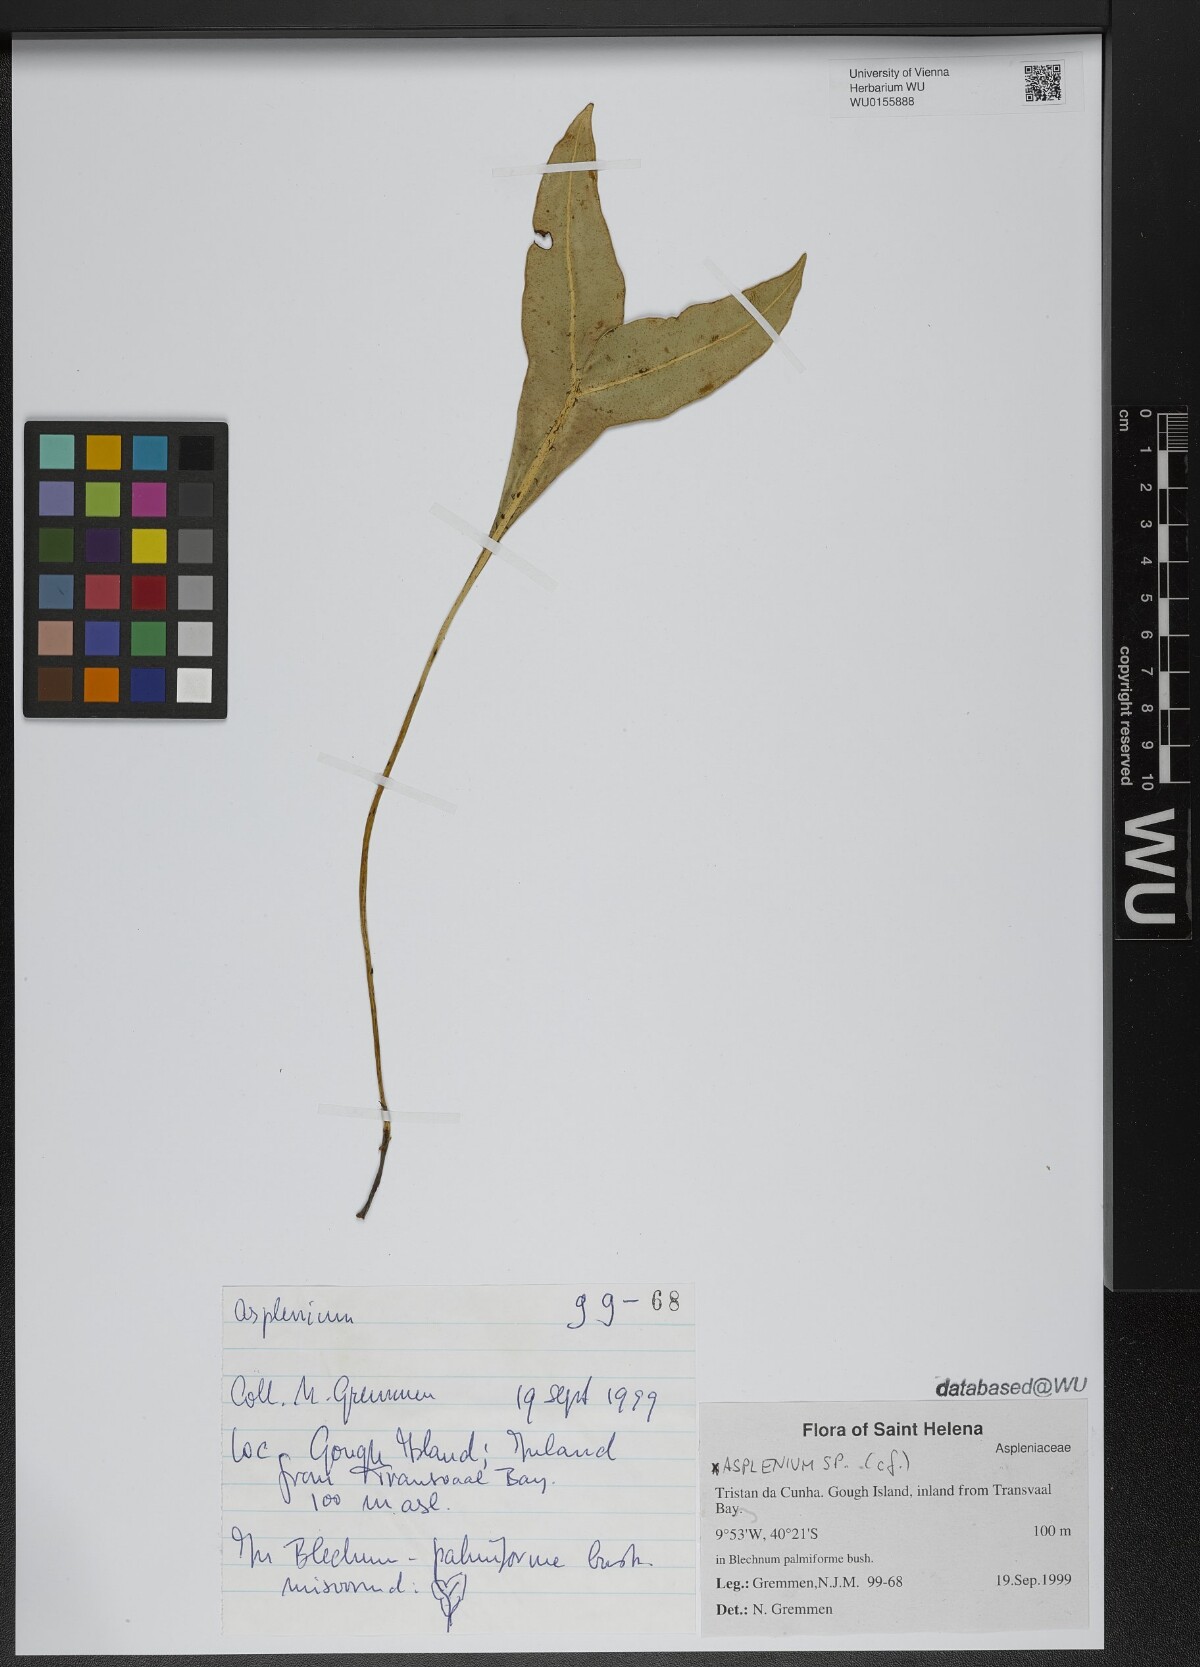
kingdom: Plantae
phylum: Tracheophyta
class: Polypodiopsida
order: Polypodiales
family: Aspleniaceae
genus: Asplenium
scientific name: Asplenium
